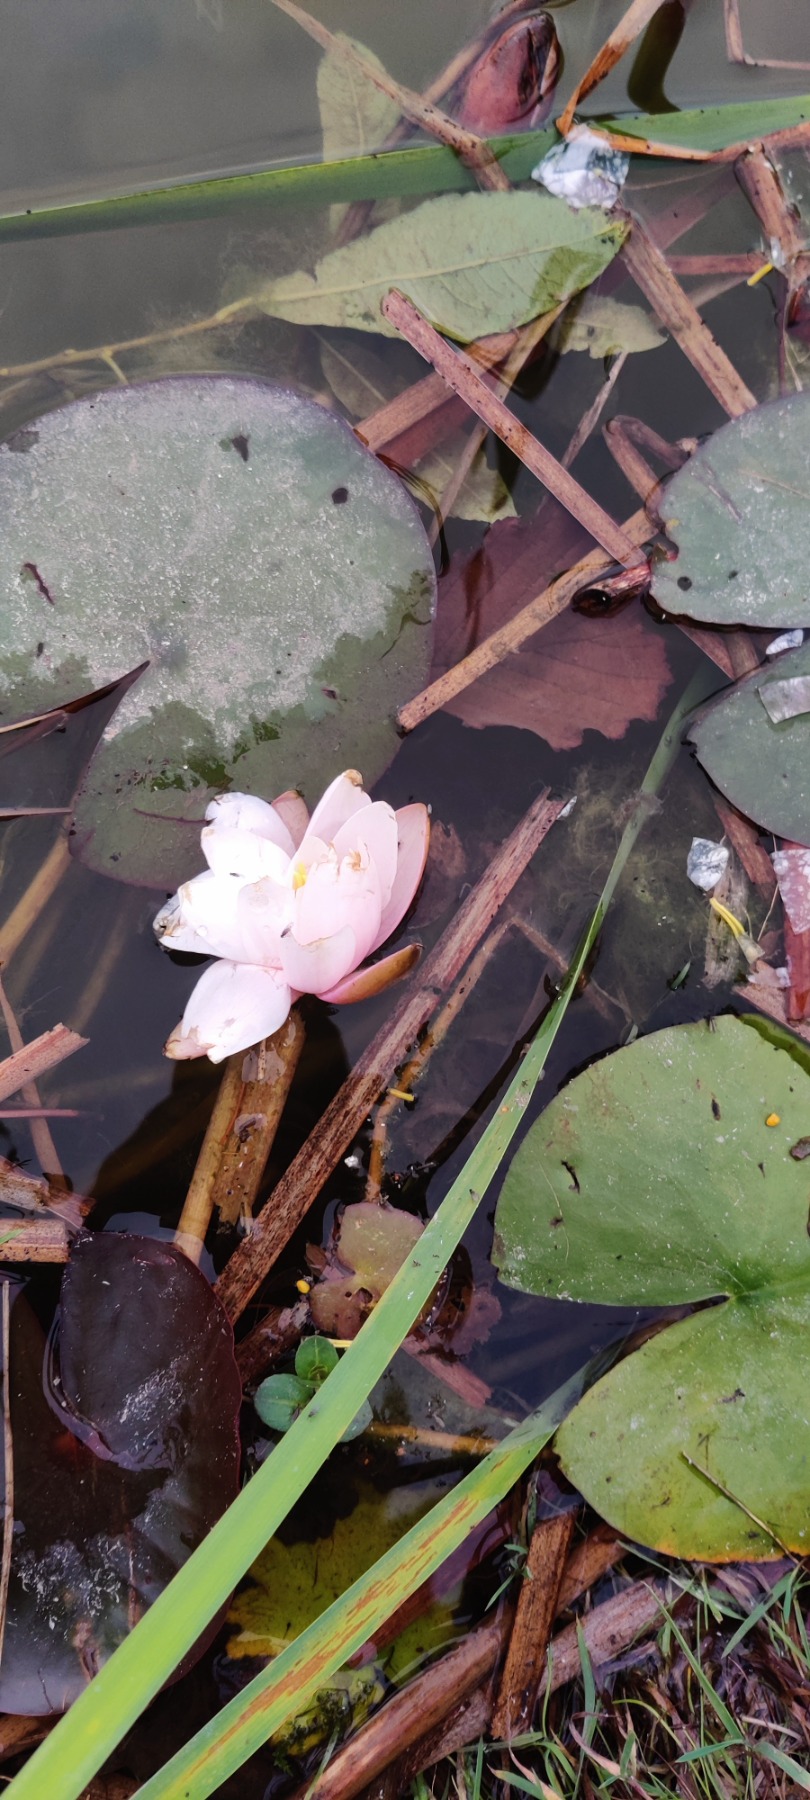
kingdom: Plantae
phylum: Tracheophyta
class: Magnoliopsida
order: Nymphaeales
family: Nymphaeaceae
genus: Nymphaea
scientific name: Nymphaea alba
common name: Hvid åkande
